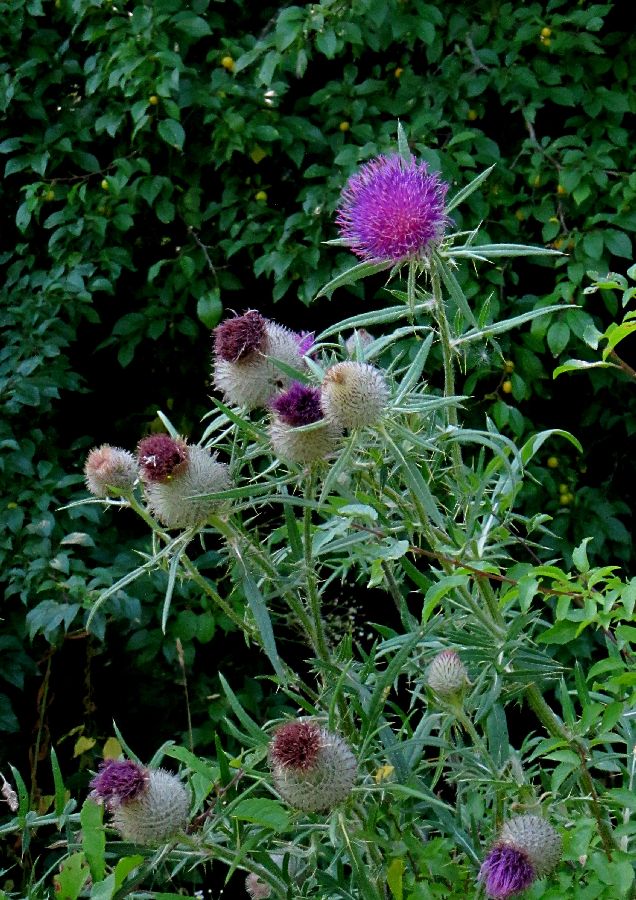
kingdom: Plantae
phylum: Tracheophyta
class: Magnoliopsida
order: Asterales
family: Asteraceae
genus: Lophiolepis
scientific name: Lophiolepis decussata
